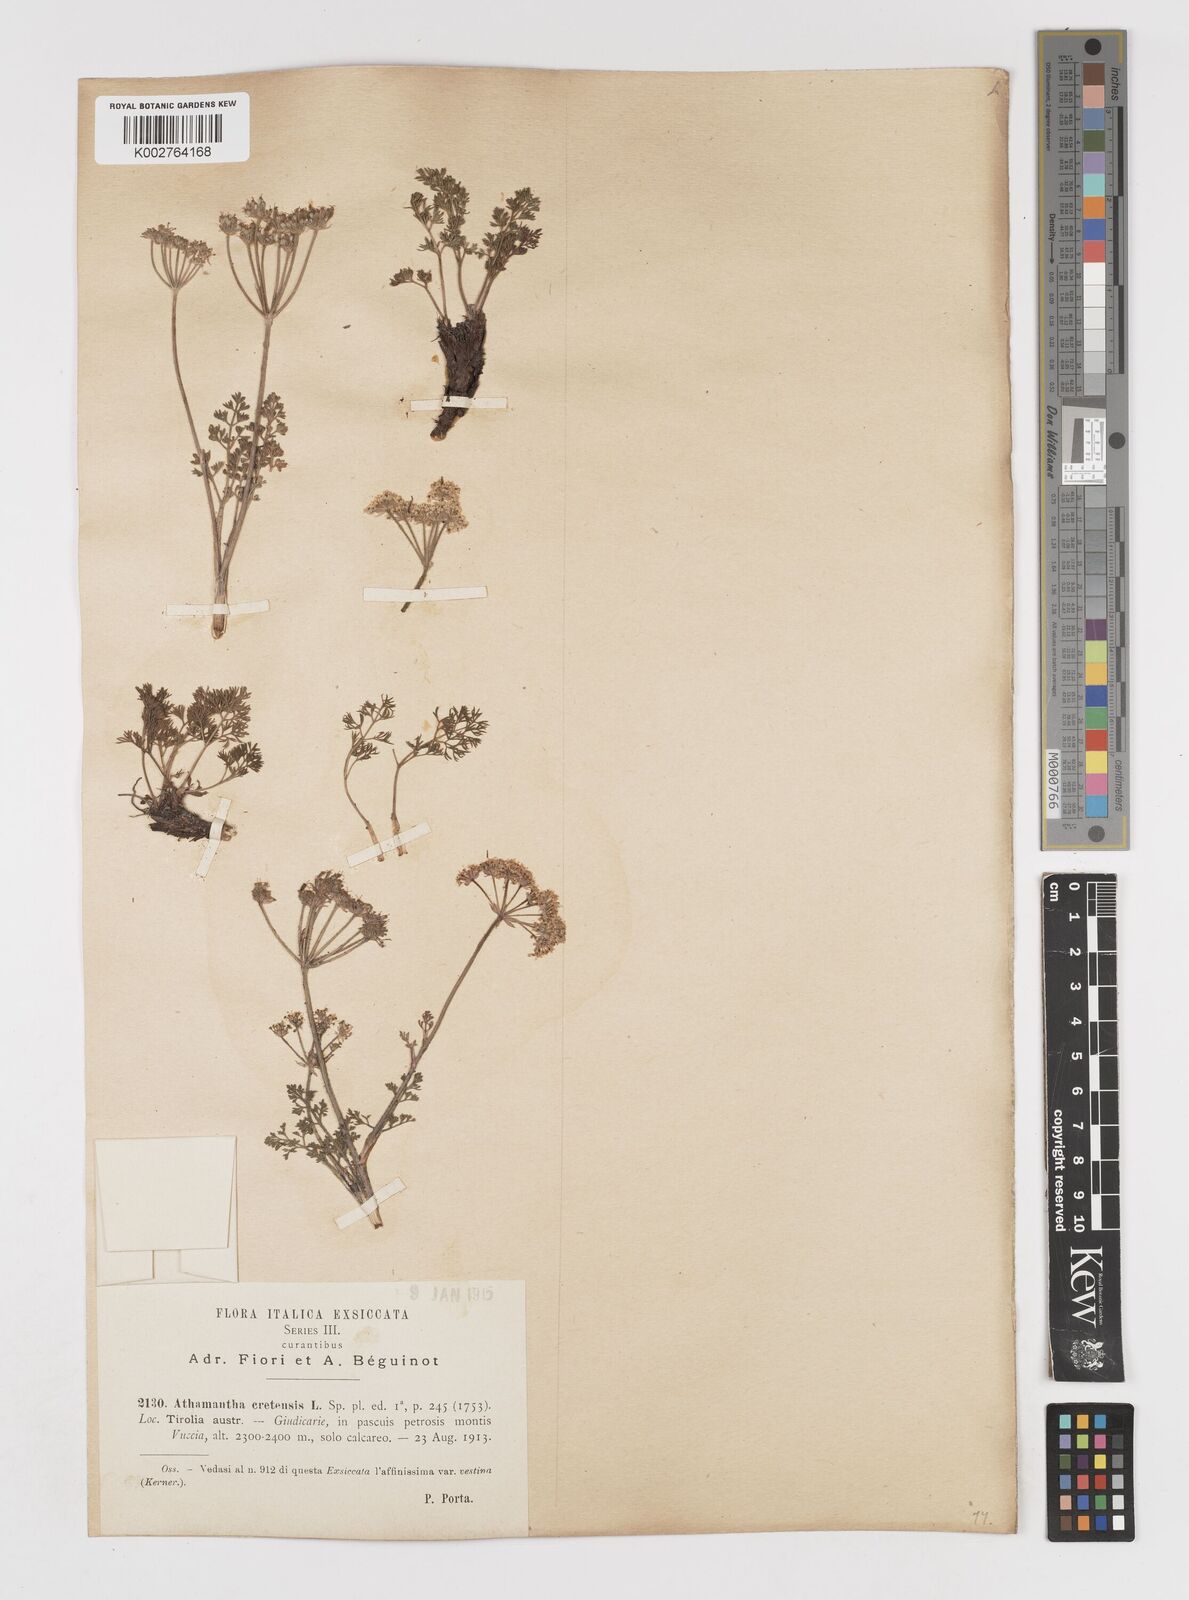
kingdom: Plantae
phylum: Tracheophyta
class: Magnoliopsida
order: Apiales
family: Apiaceae
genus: Athamanta
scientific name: Athamanta cretensis
